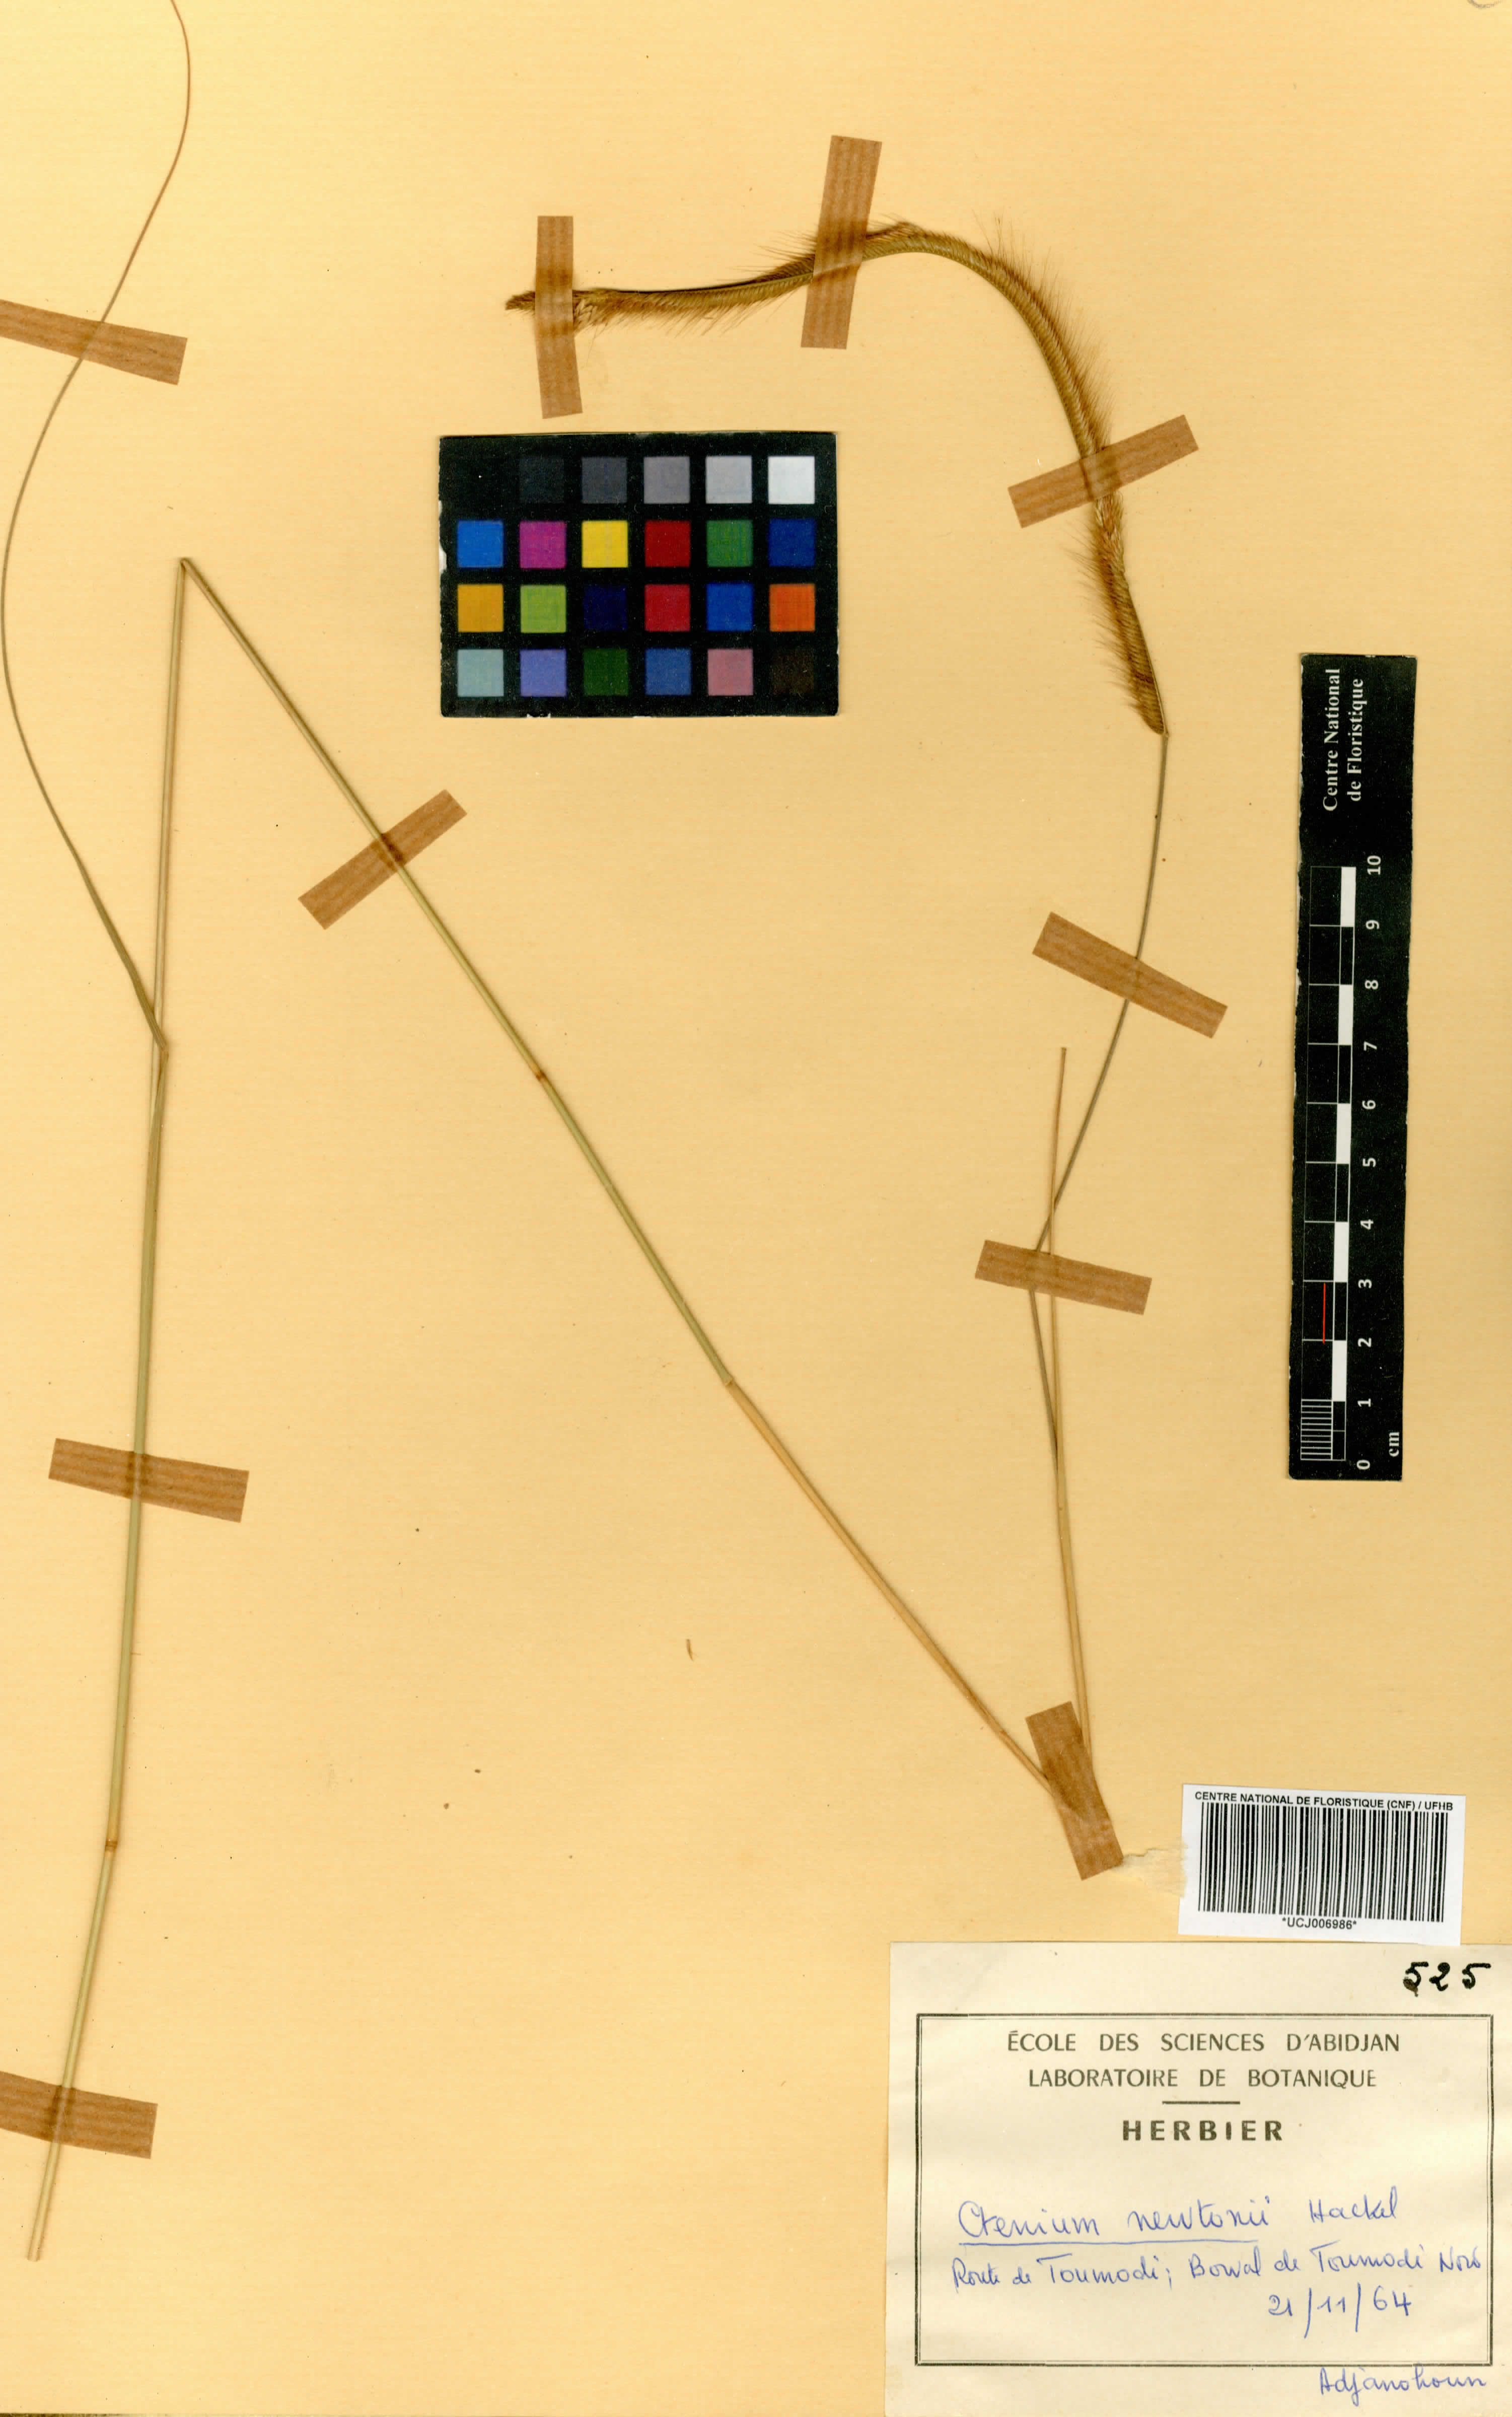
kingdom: Plantae
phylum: Tracheophyta
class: Liliopsida
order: Poales
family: Poaceae
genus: Ctenium
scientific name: Ctenium newtonii
